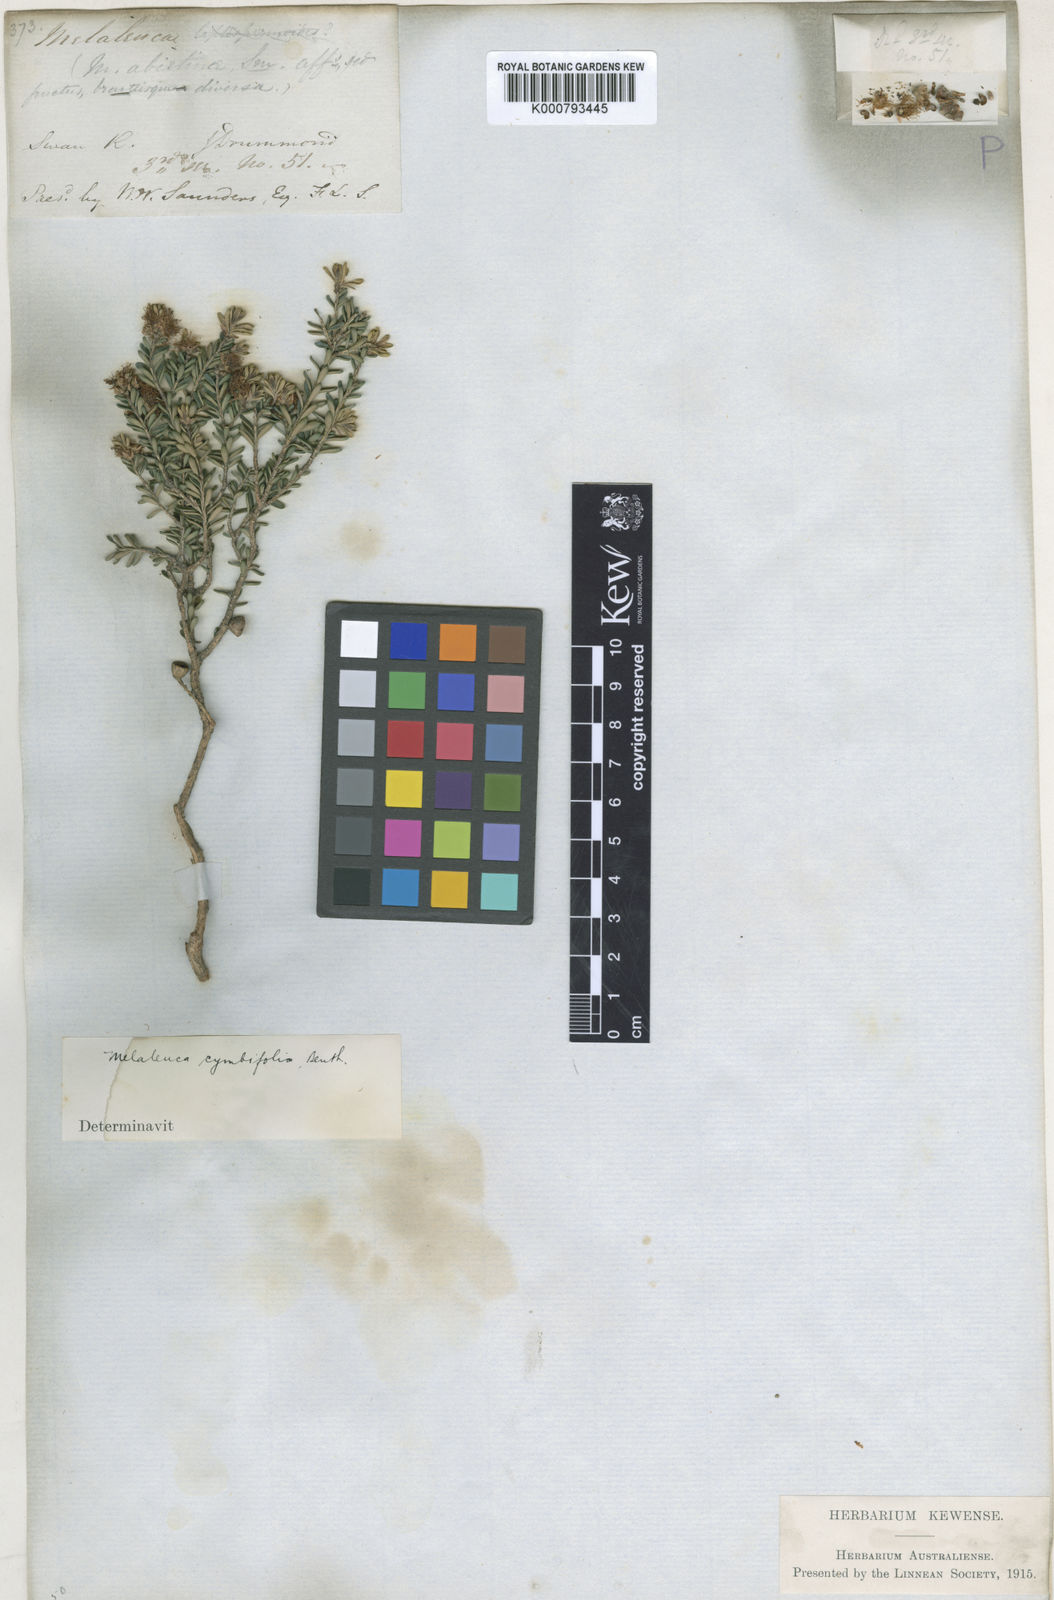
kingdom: Plantae
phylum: Tracheophyta
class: Magnoliopsida
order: Myrtales
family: Myrtaceae
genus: Melaleuca
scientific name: Melaleuca halmaturorum
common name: Coastal paper-bark
